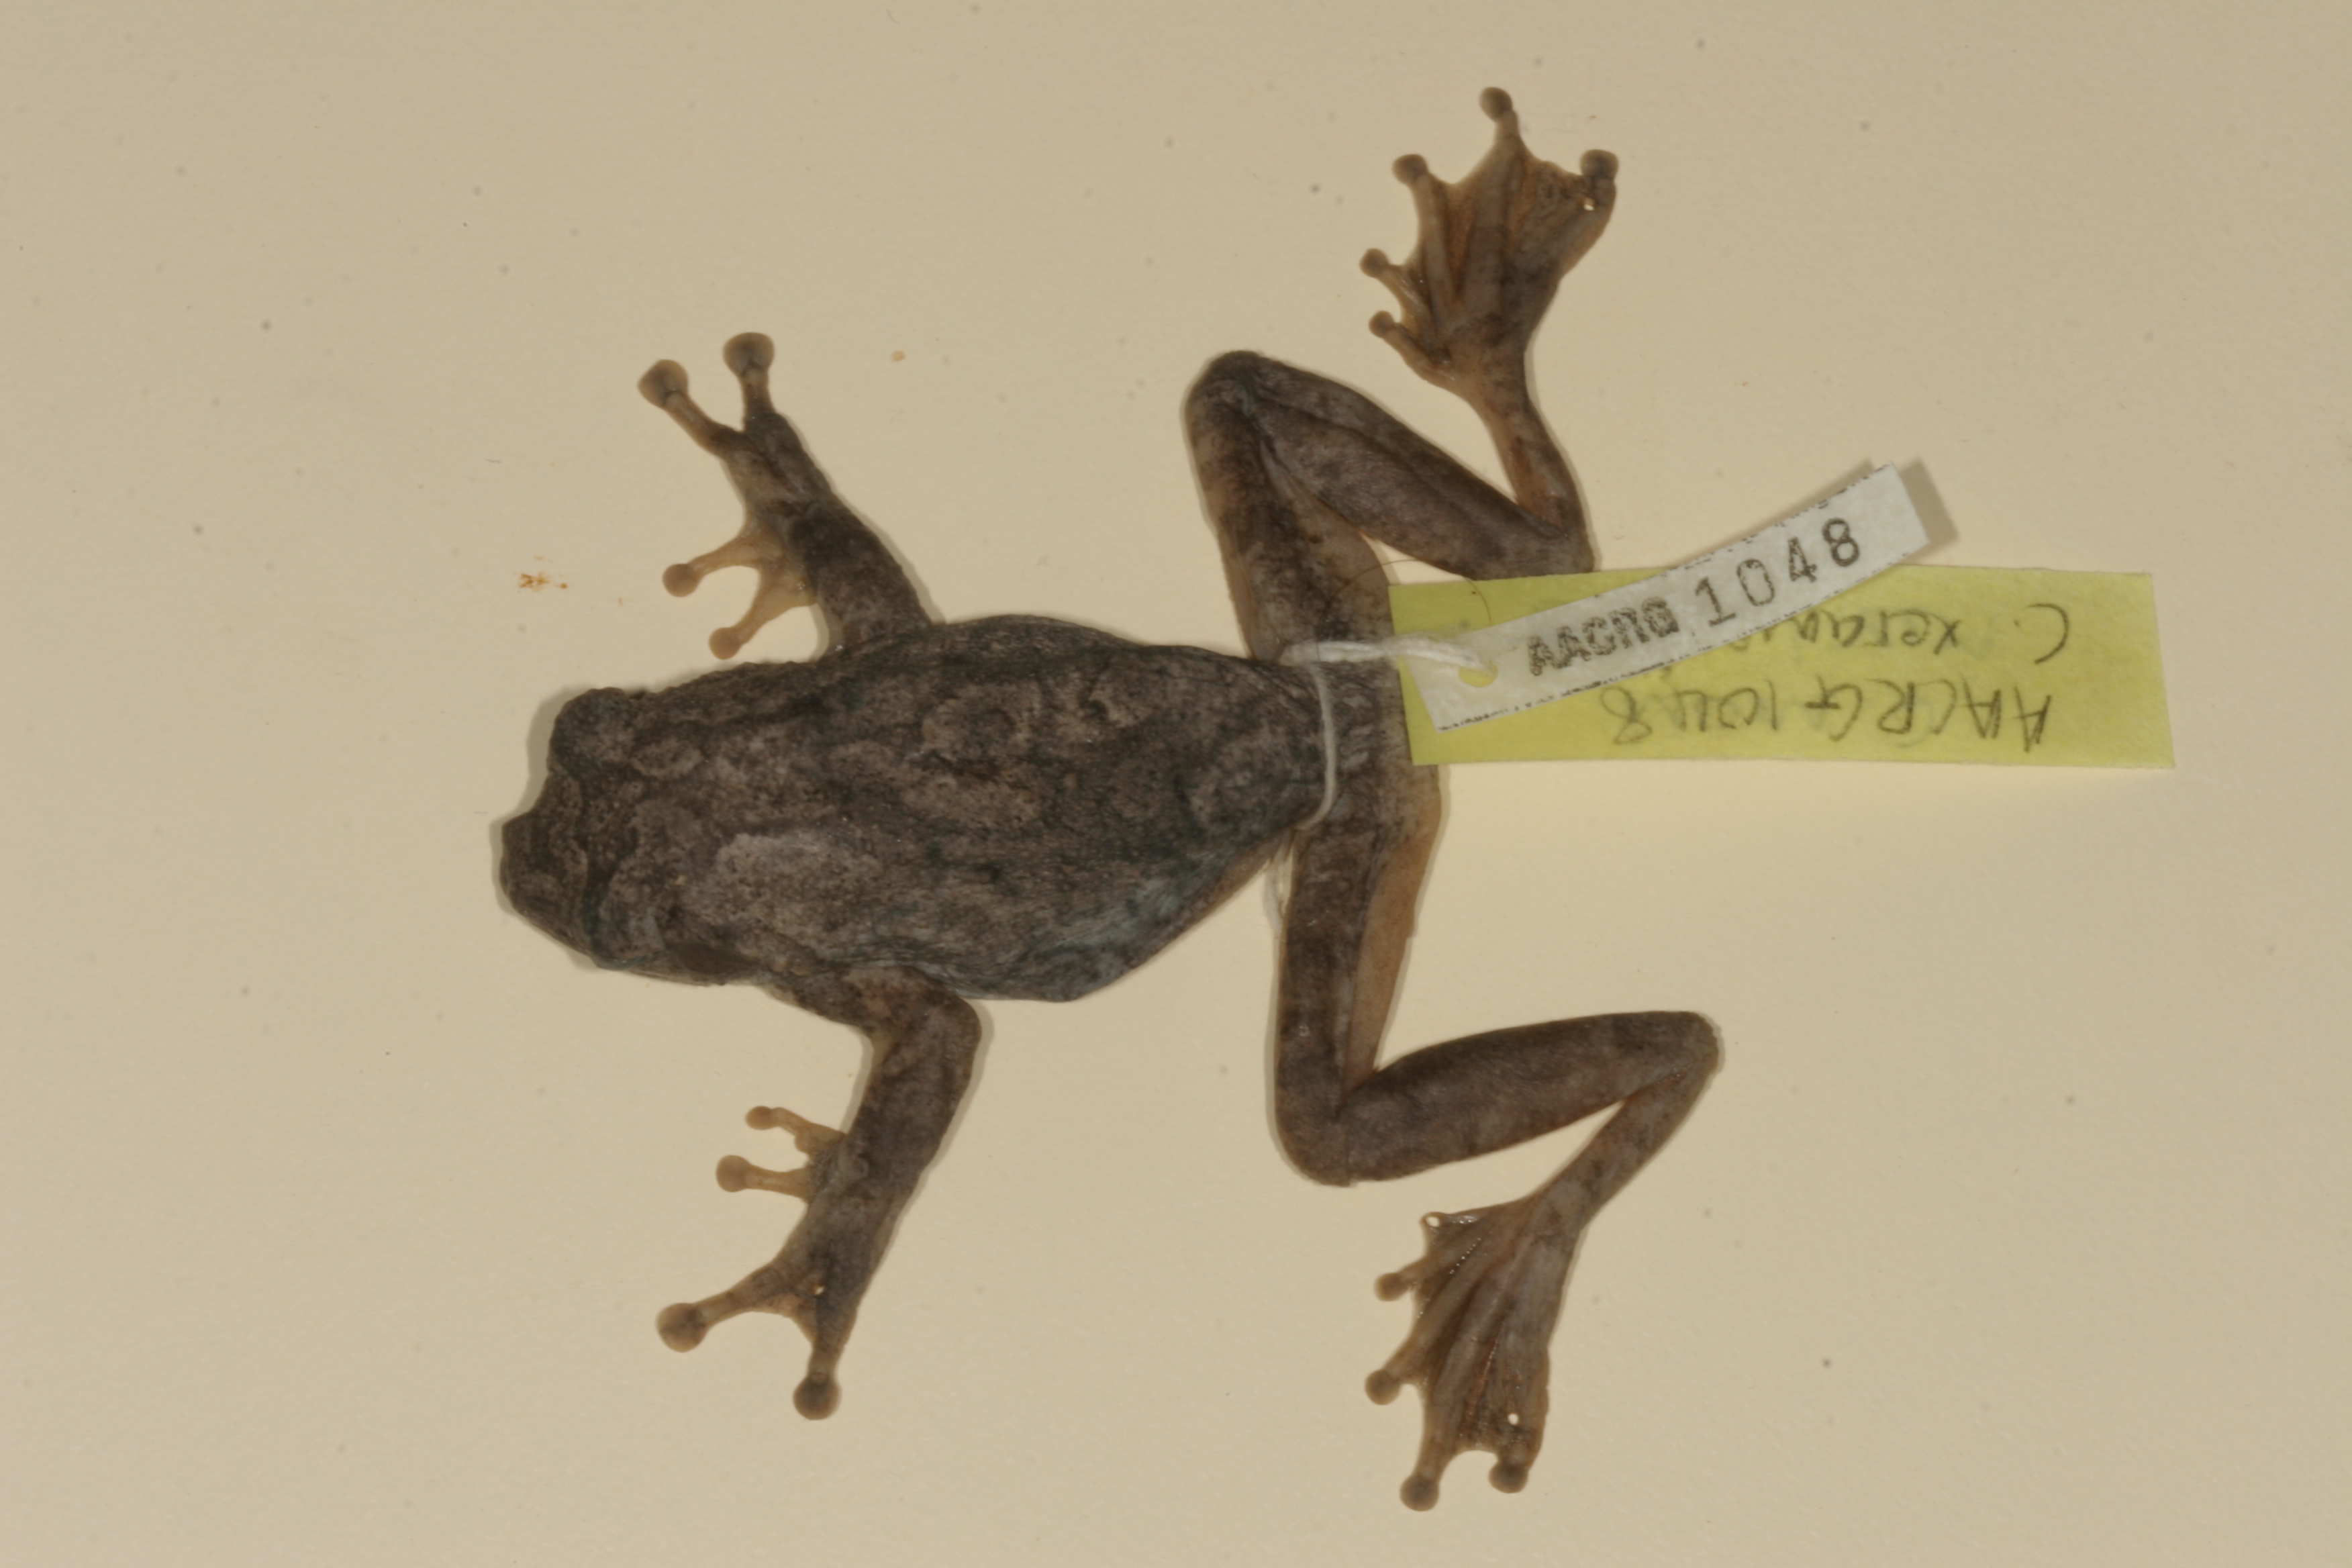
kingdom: Animalia
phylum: Chordata
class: Amphibia
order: Anura
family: Rhacophoridae
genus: Chiromantis
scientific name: Chiromantis xerampelina
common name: African gray treefrog
